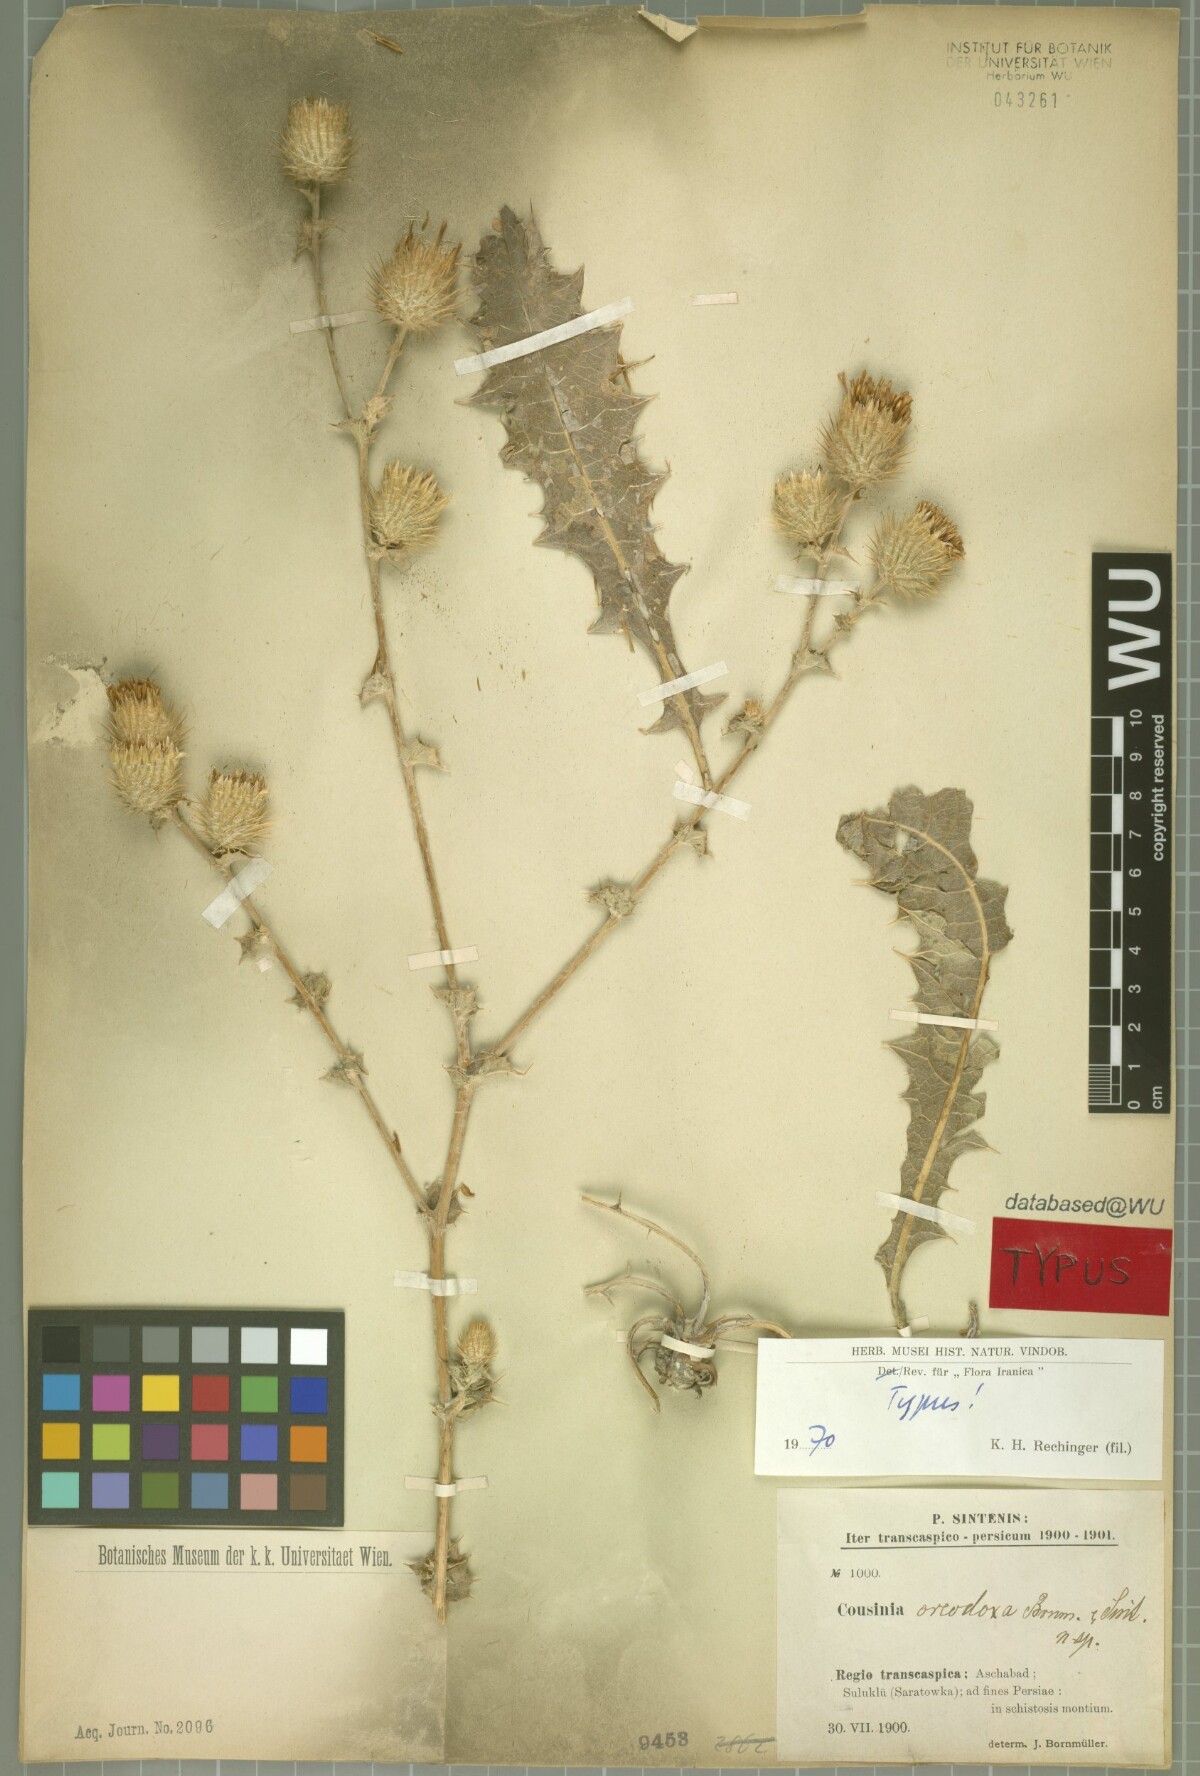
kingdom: Plantae
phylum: Tracheophyta
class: Magnoliopsida
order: Asterales
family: Asteraceae
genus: Cousinia
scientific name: Cousinia oreodoxa
